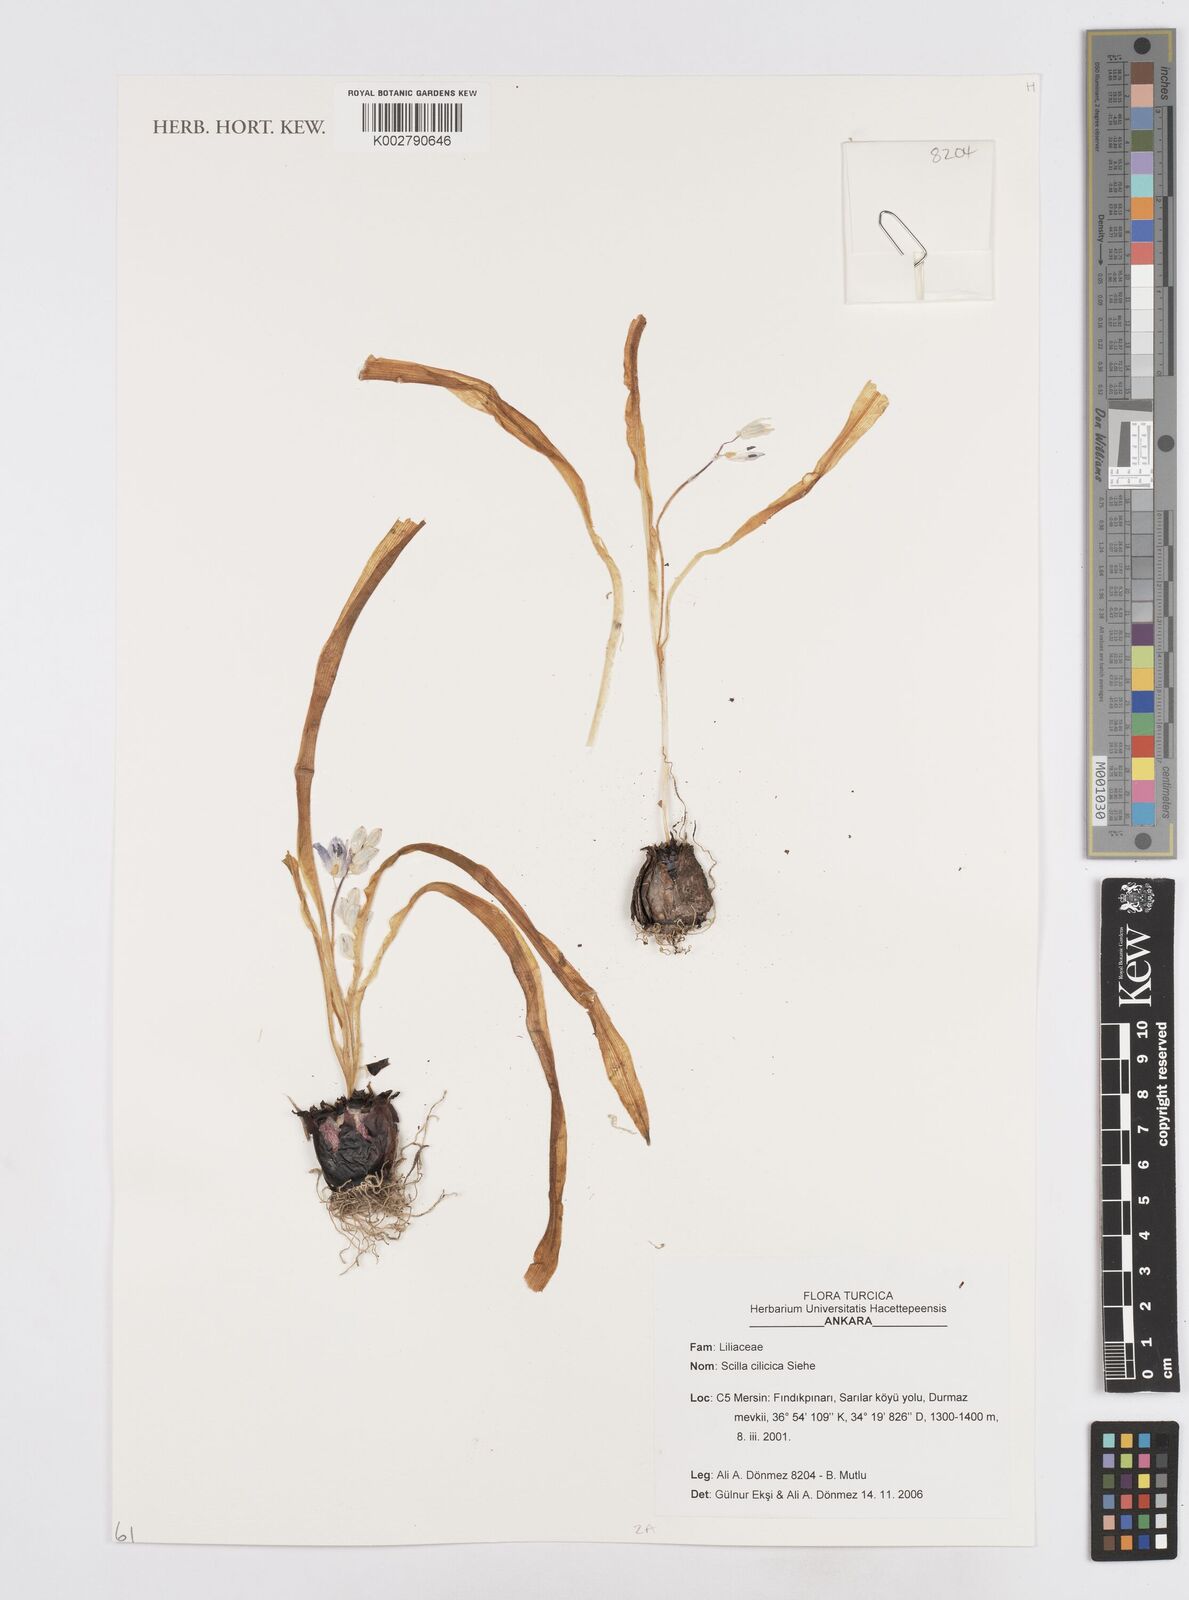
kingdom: Plantae
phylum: Tracheophyta
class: Liliopsida
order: Asparagales
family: Asparagaceae
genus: Scilla
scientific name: Scilla cilicica
